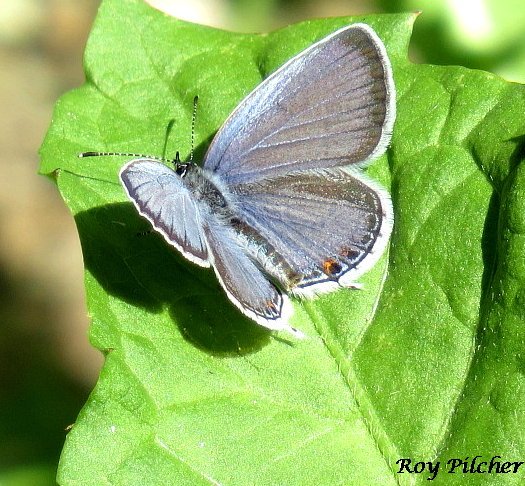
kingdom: Animalia
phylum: Arthropoda
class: Insecta
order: Lepidoptera
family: Lycaenidae
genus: Elkalyce
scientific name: Elkalyce comyntas
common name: Eastern Tailed-Blue
